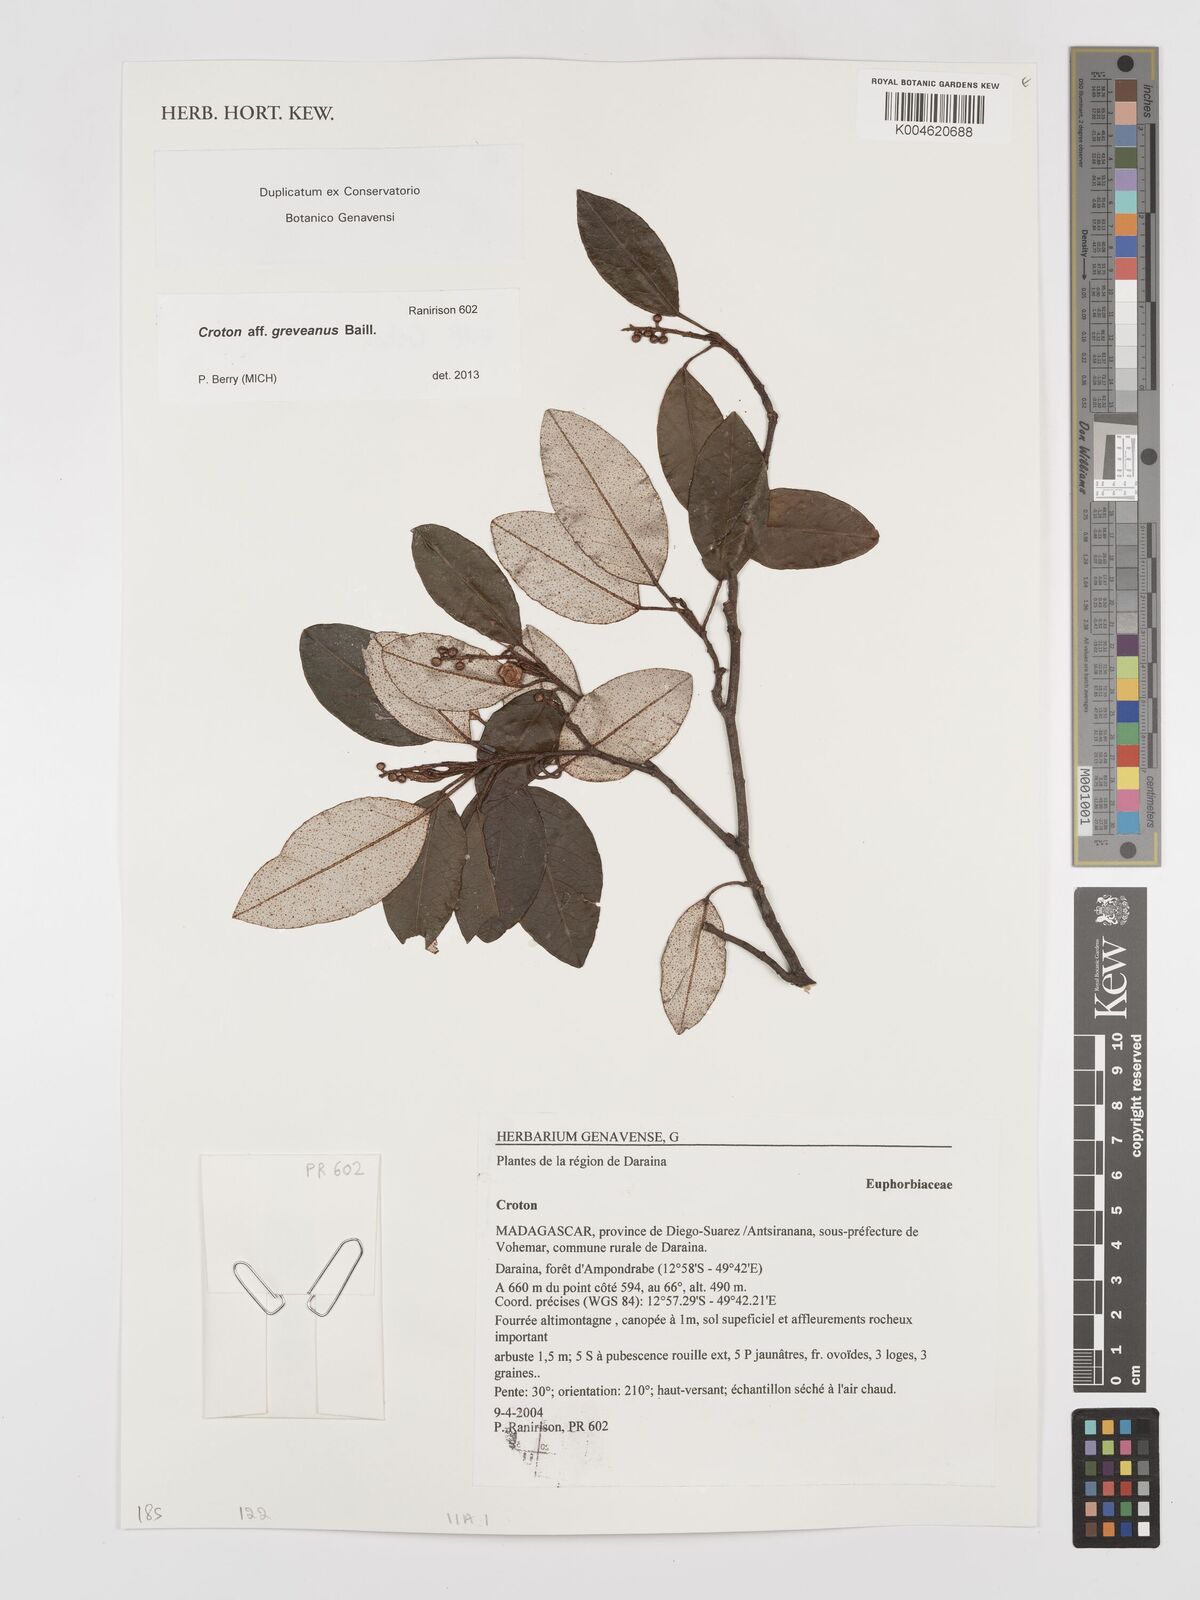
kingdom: Plantae
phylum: Tracheophyta
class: Magnoliopsida
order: Malpighiales
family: Euphorbiaceae
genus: Croton
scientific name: Croton
